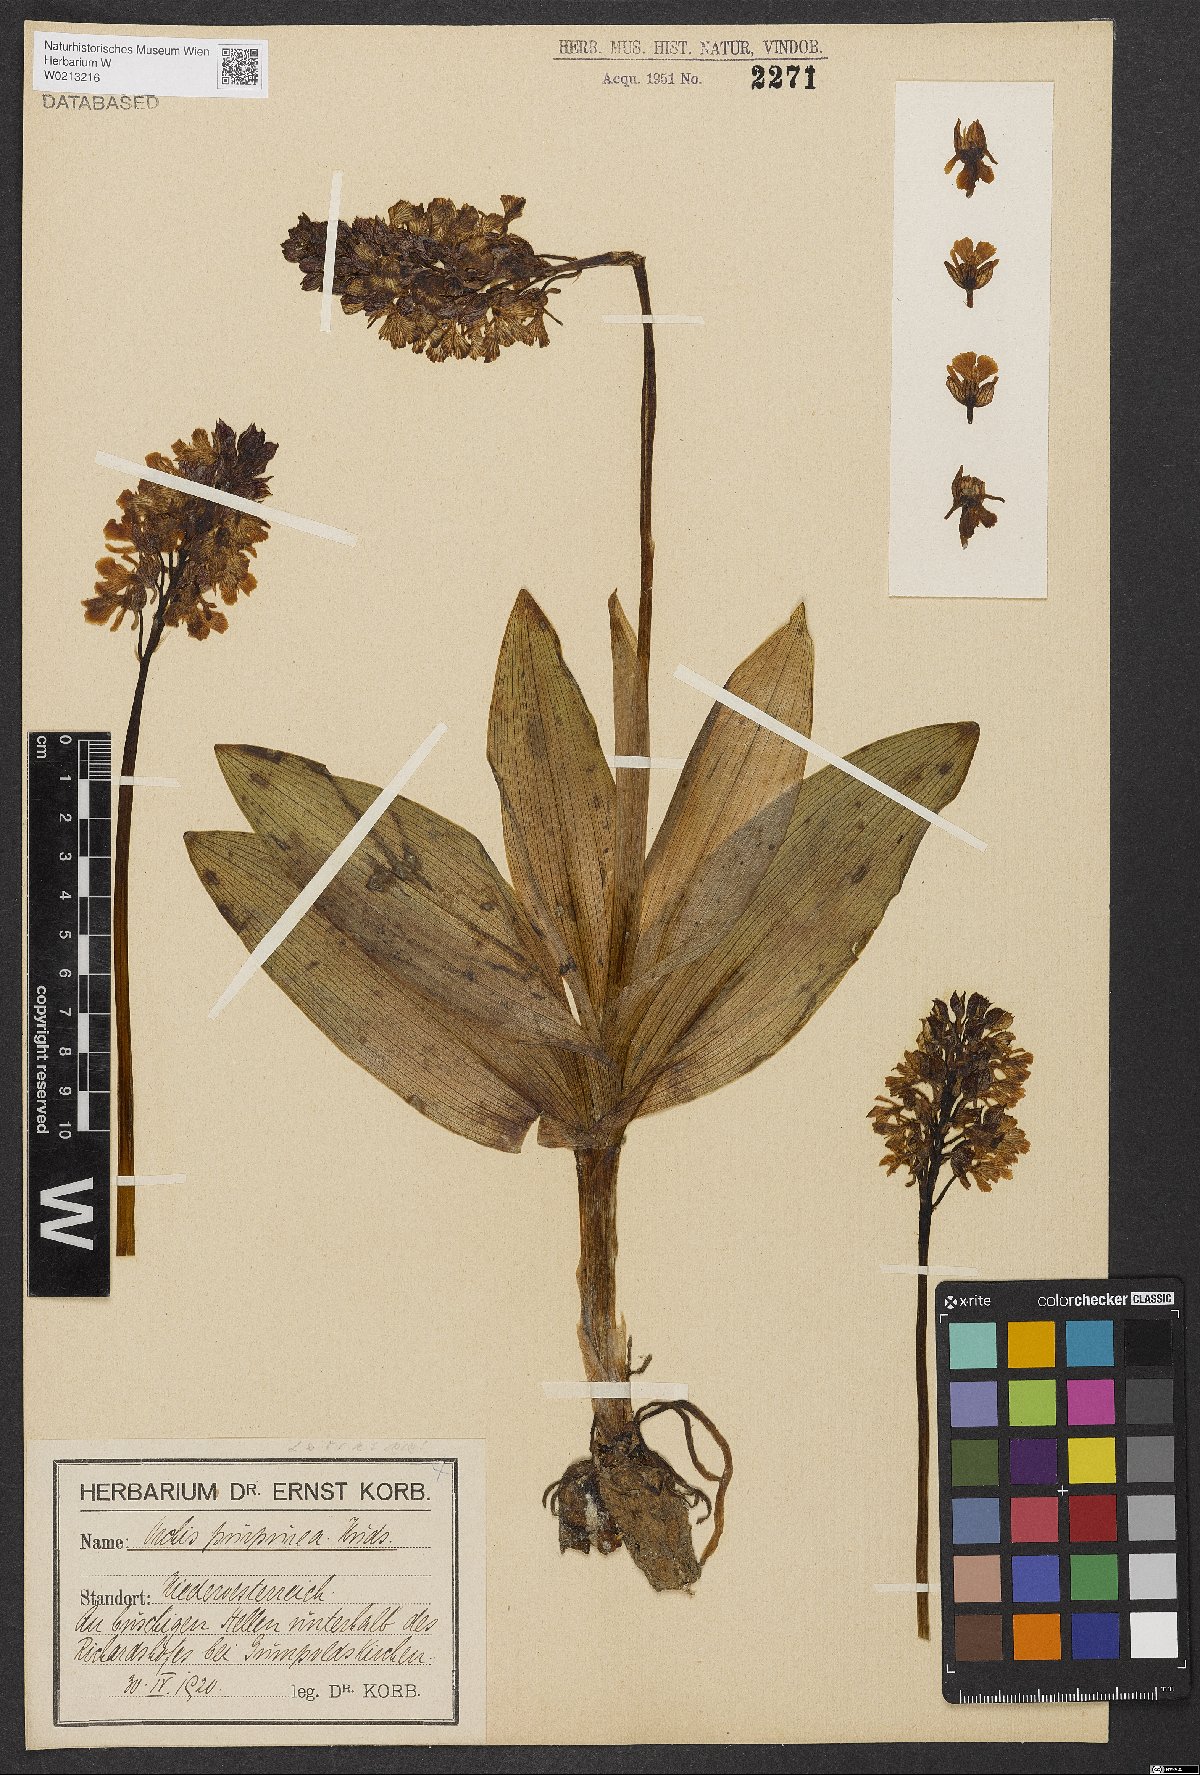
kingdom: Plantae
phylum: Tracheophyta
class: Liliopsida
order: Asparagales
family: Orchidaceae
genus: Orchis
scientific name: Orchis purpurea
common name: Lady orchid
